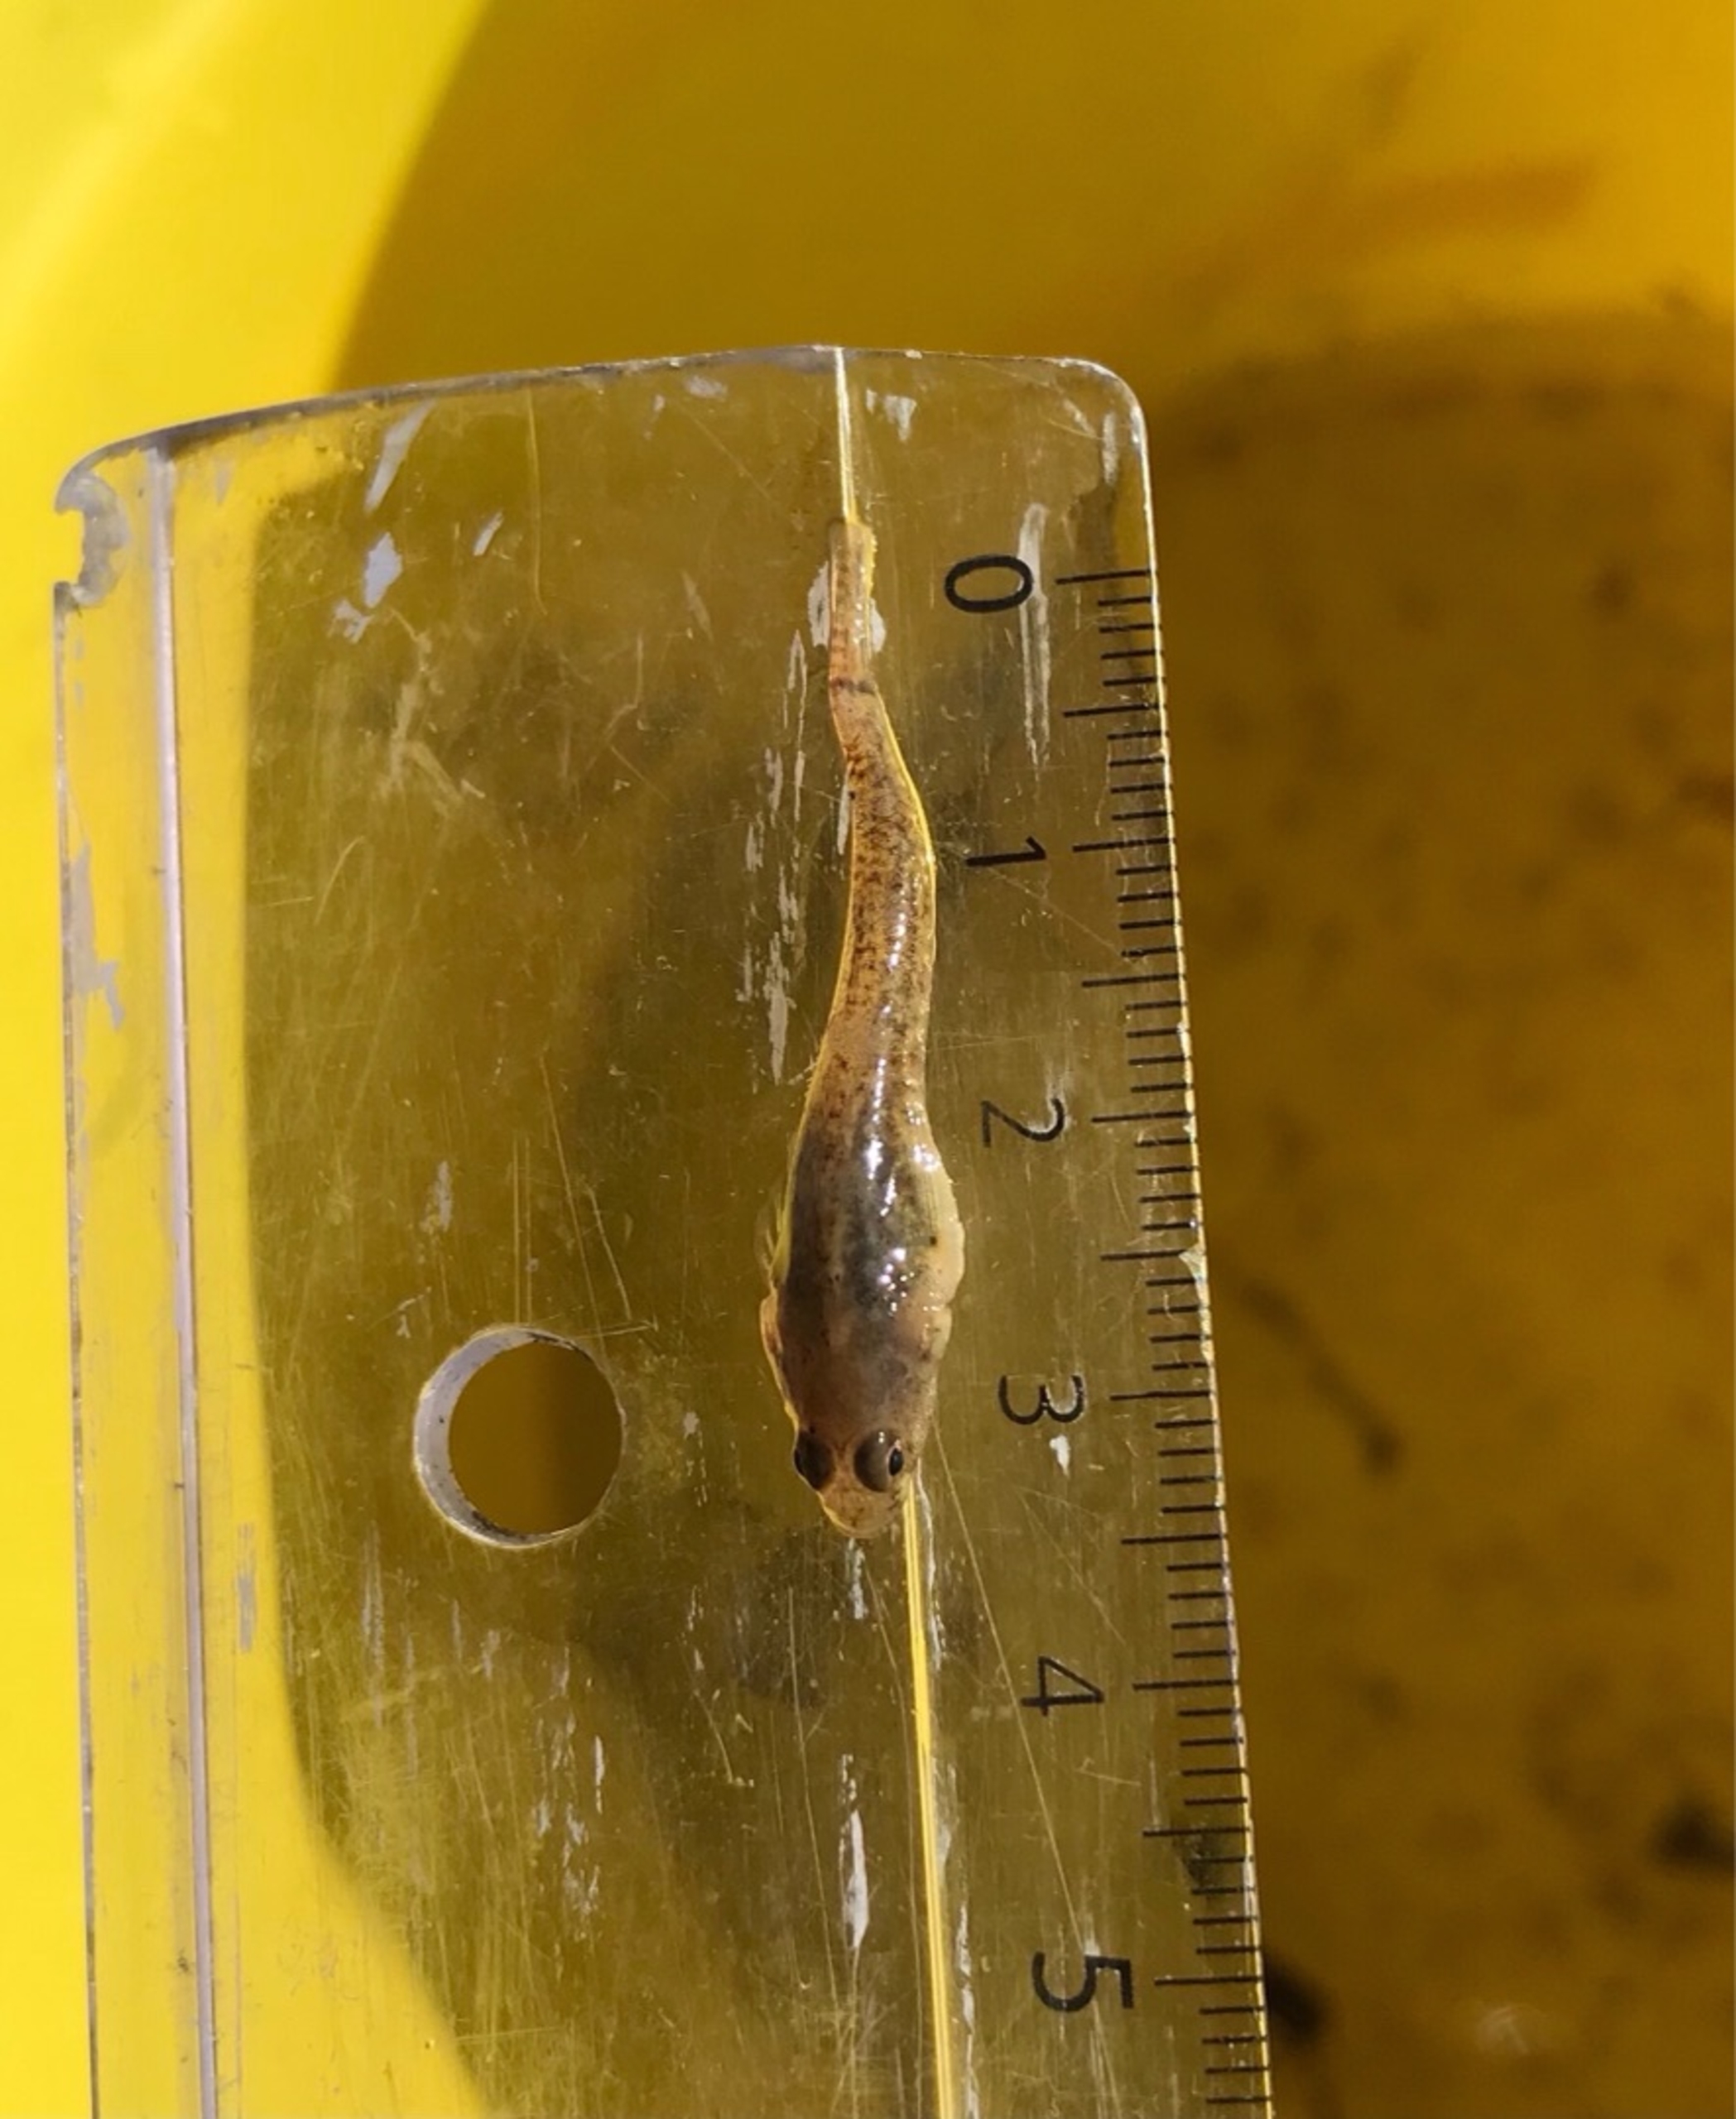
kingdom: Animalia
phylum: Chordata
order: Perciformes
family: Gobiidae
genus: Pomatoschistus
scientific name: Pomatoschistus microps
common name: Lerkutling
